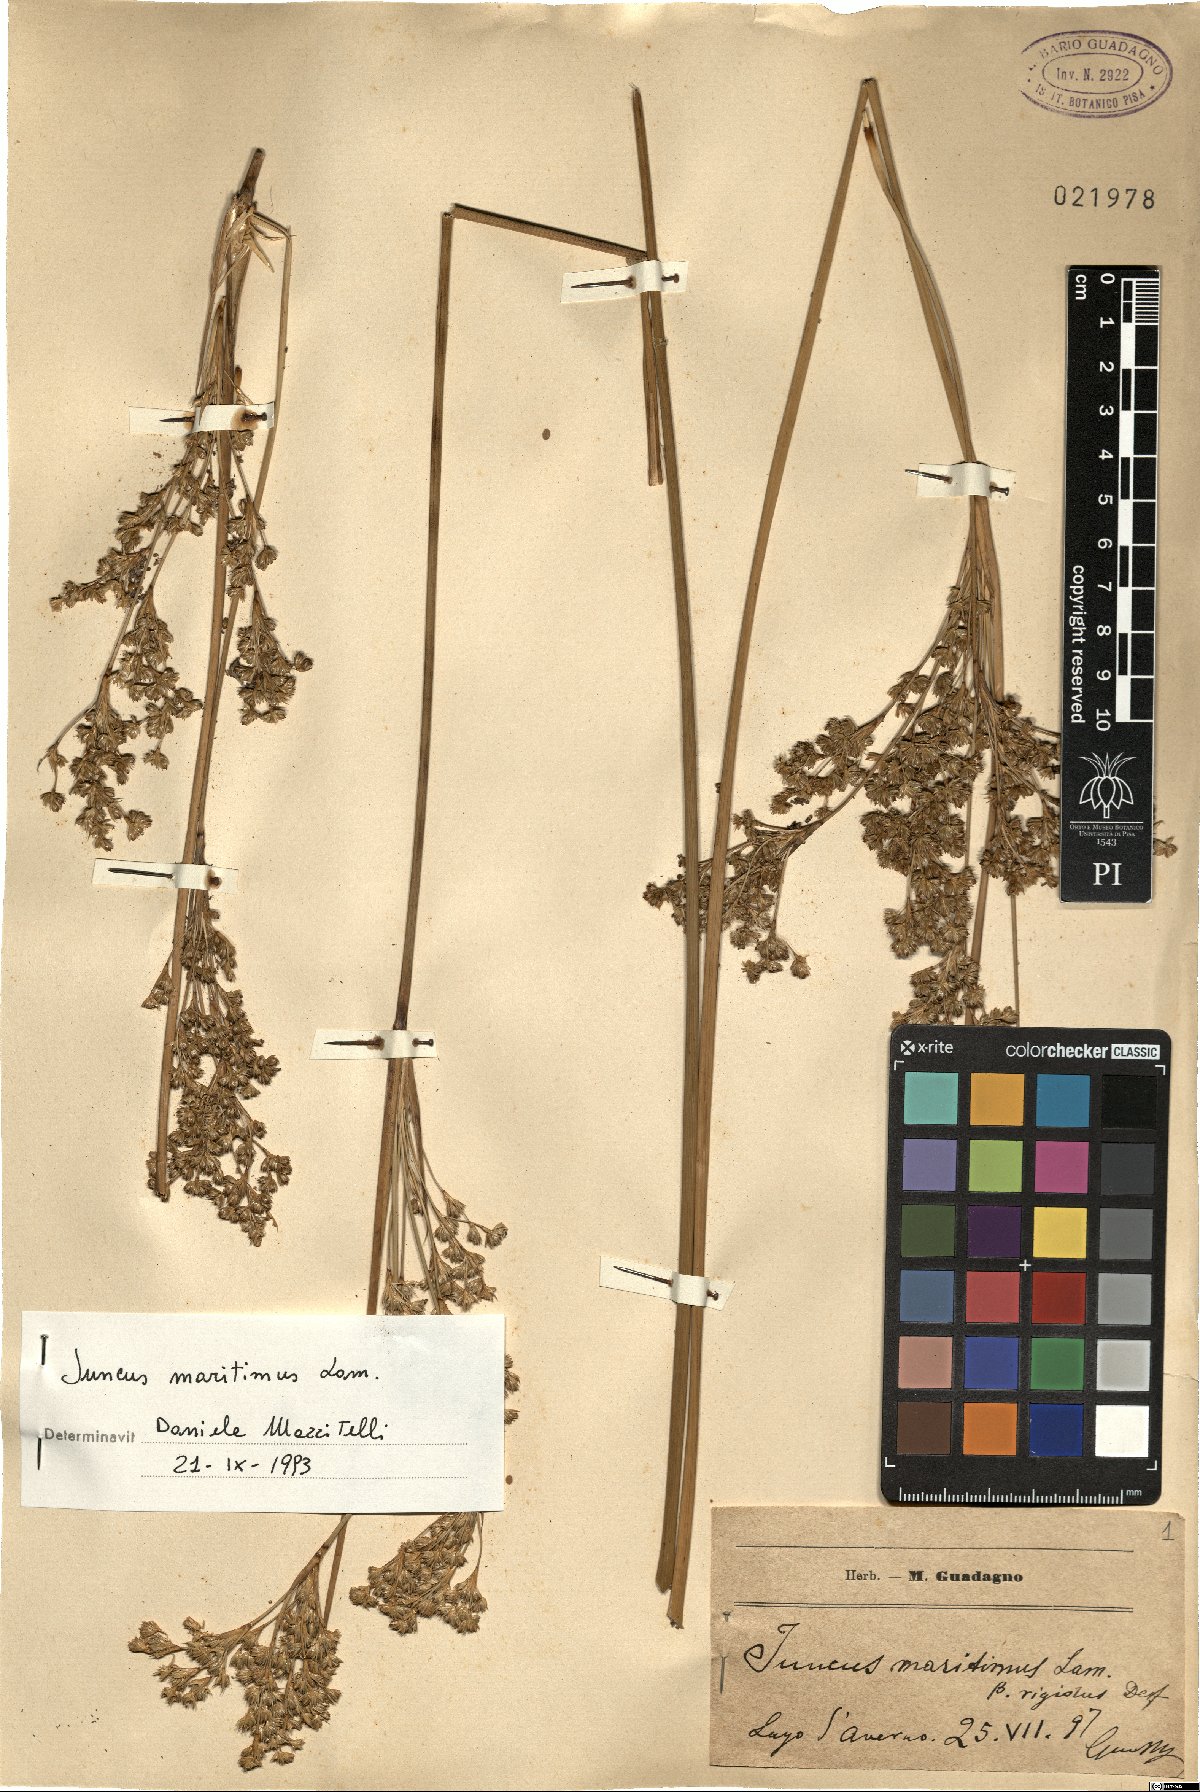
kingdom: Plantae
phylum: Tracheophyta
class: Liliopsida
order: Poales
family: Juncaceae
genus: Juncus
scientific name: Juncus maritimus
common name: Sea rush
